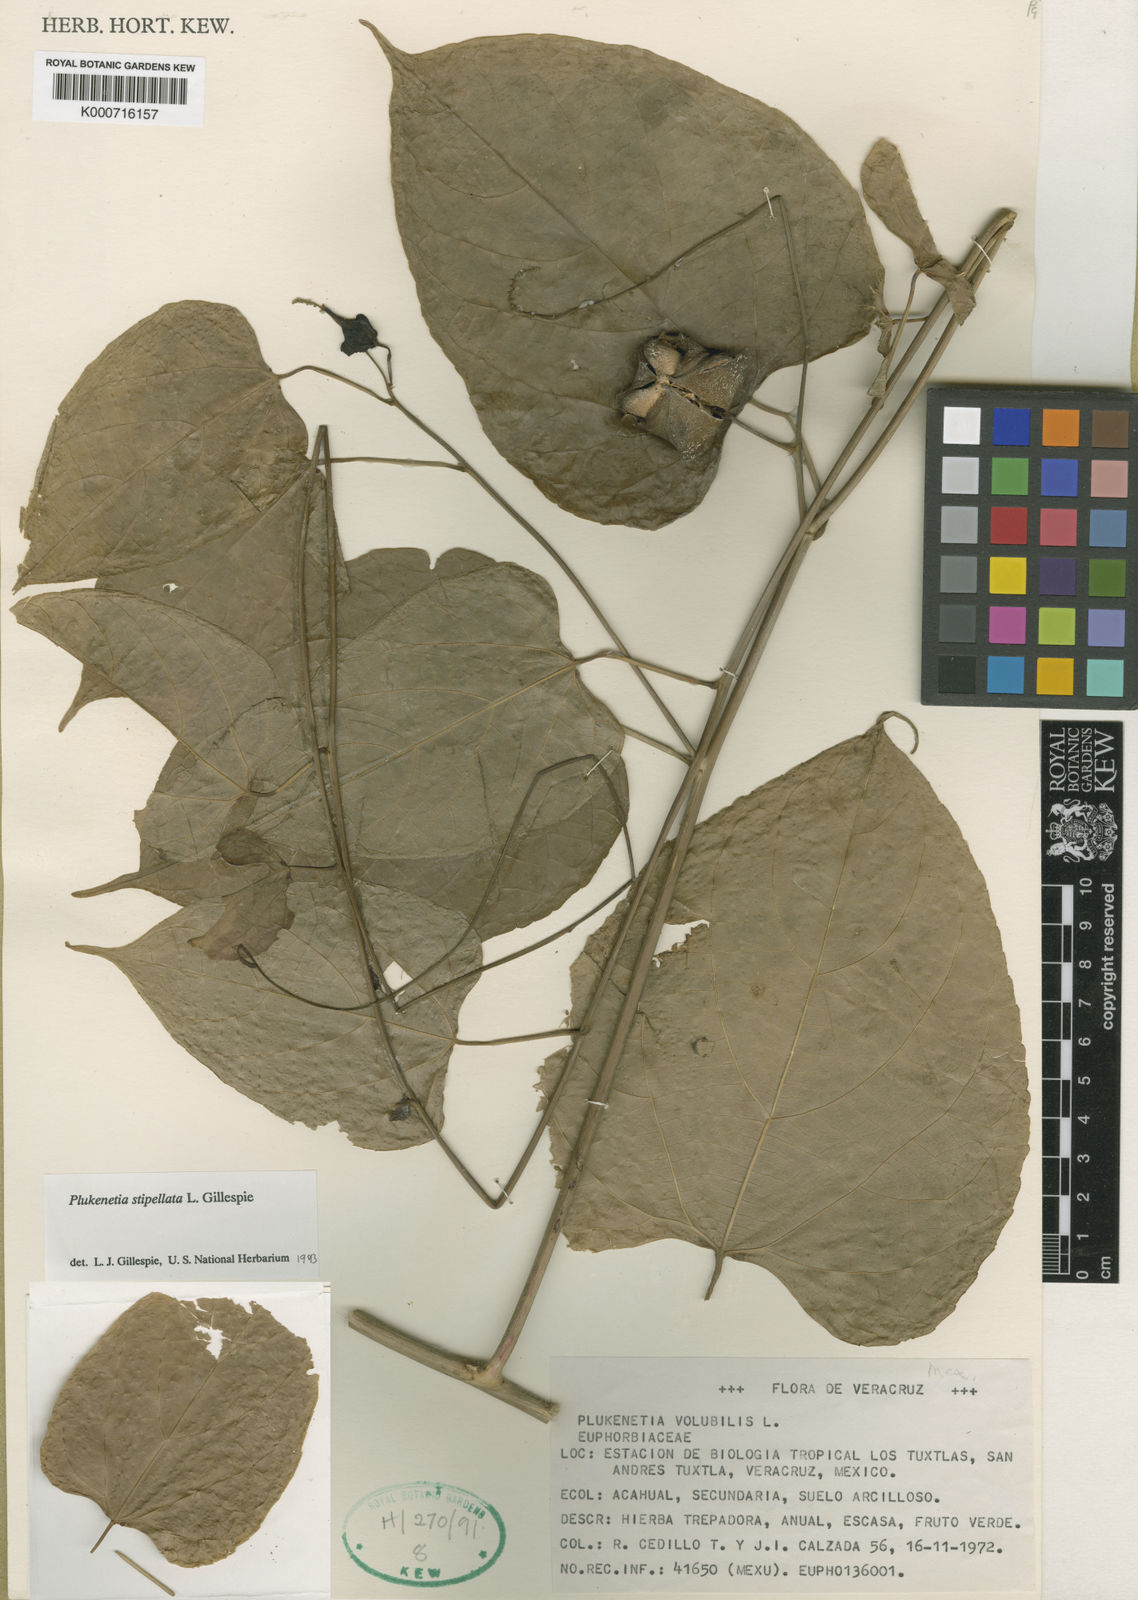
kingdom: Plantae
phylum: Tracheophyta
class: Magnoliopsida
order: Malpighiales
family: Euphorbiaceae
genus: Plukenetia
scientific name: Plukenetia stipellata
